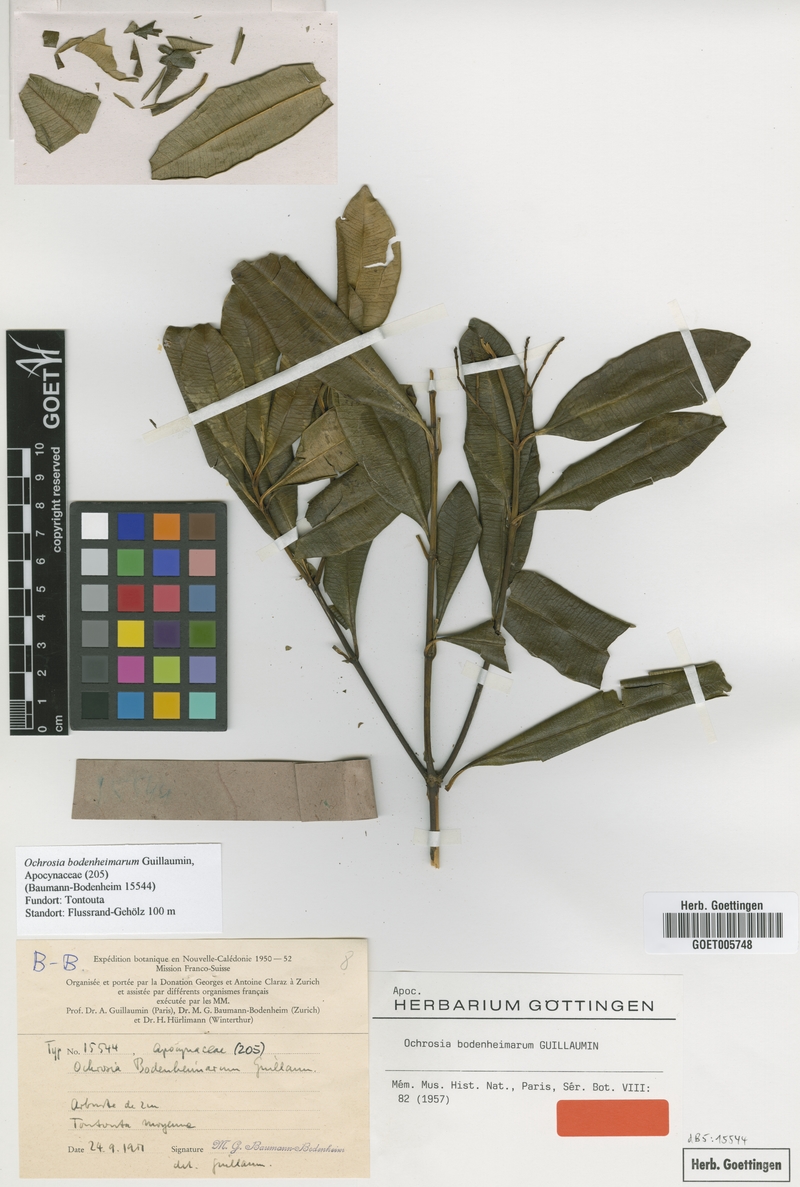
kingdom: Plantae
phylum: Tracheophyta
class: Magnoliopsida
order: Gentianales
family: Apocynaceae
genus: Ochrosia
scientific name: Ochrosia bodenheimarum
